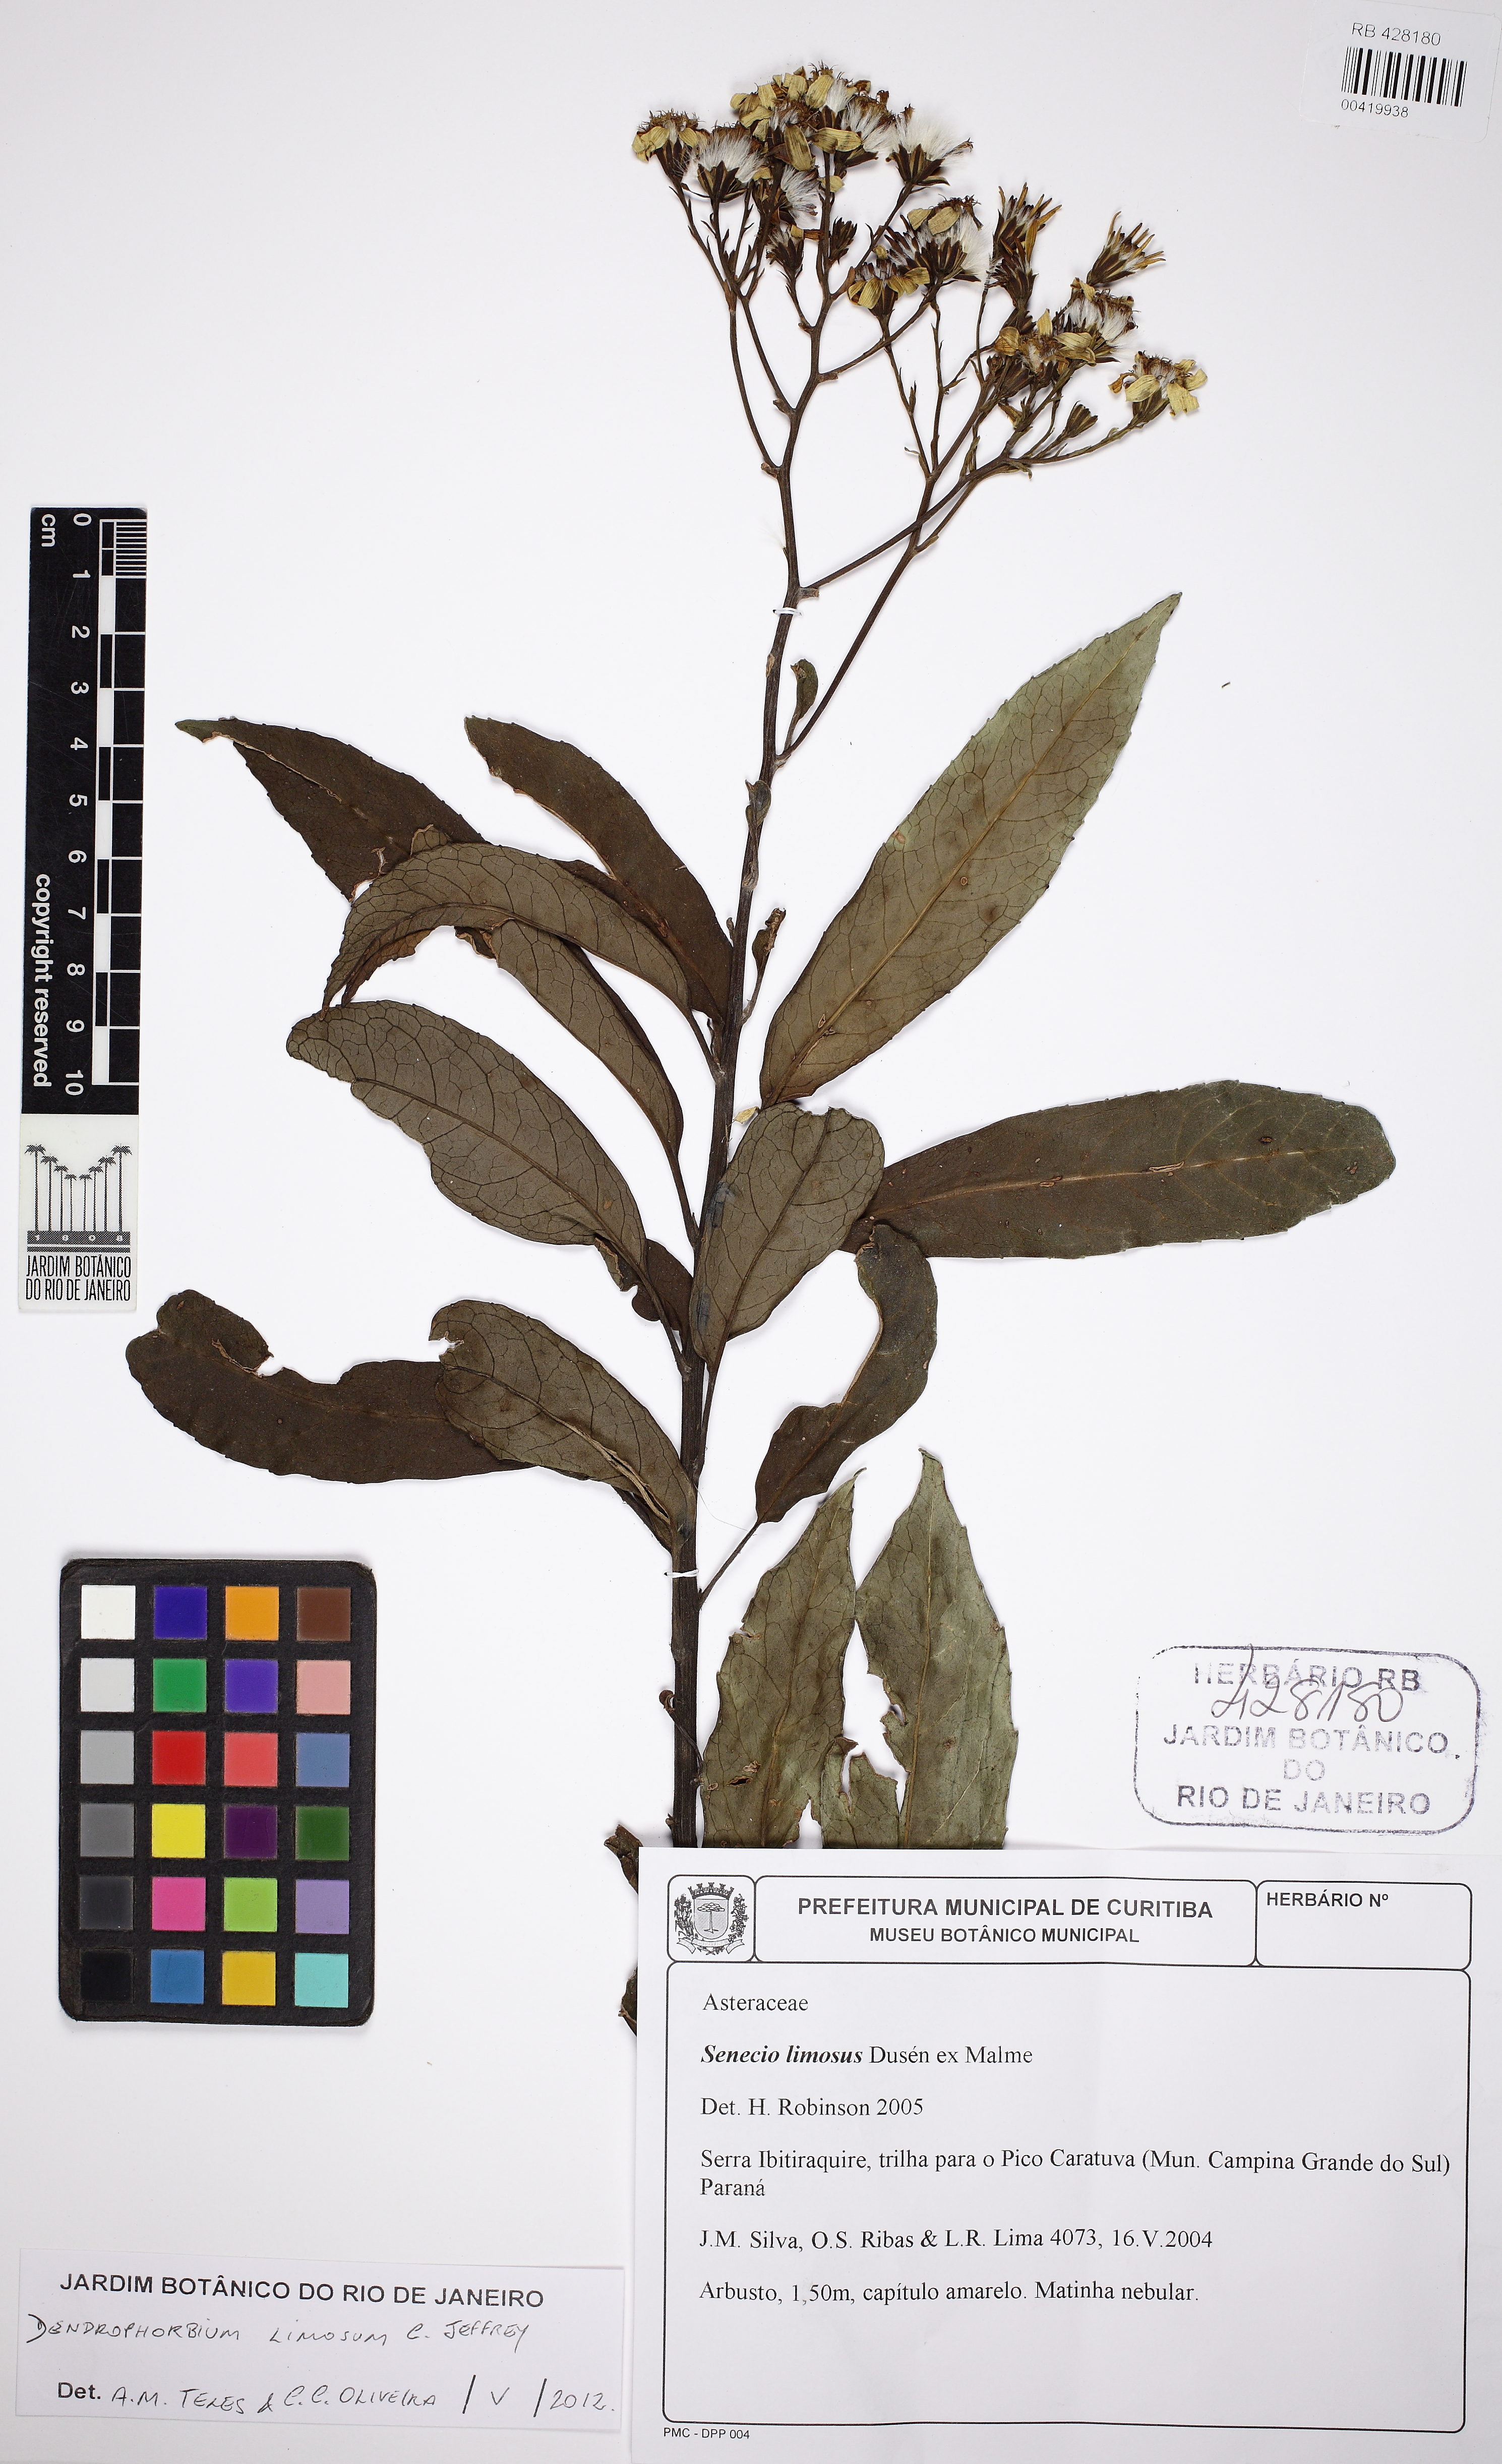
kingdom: Plantae
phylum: Tracheophyta
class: Magnoliopsida
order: Asterales
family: Asteraceae
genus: Dendrophorbium
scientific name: Dendrophorbium limosum
